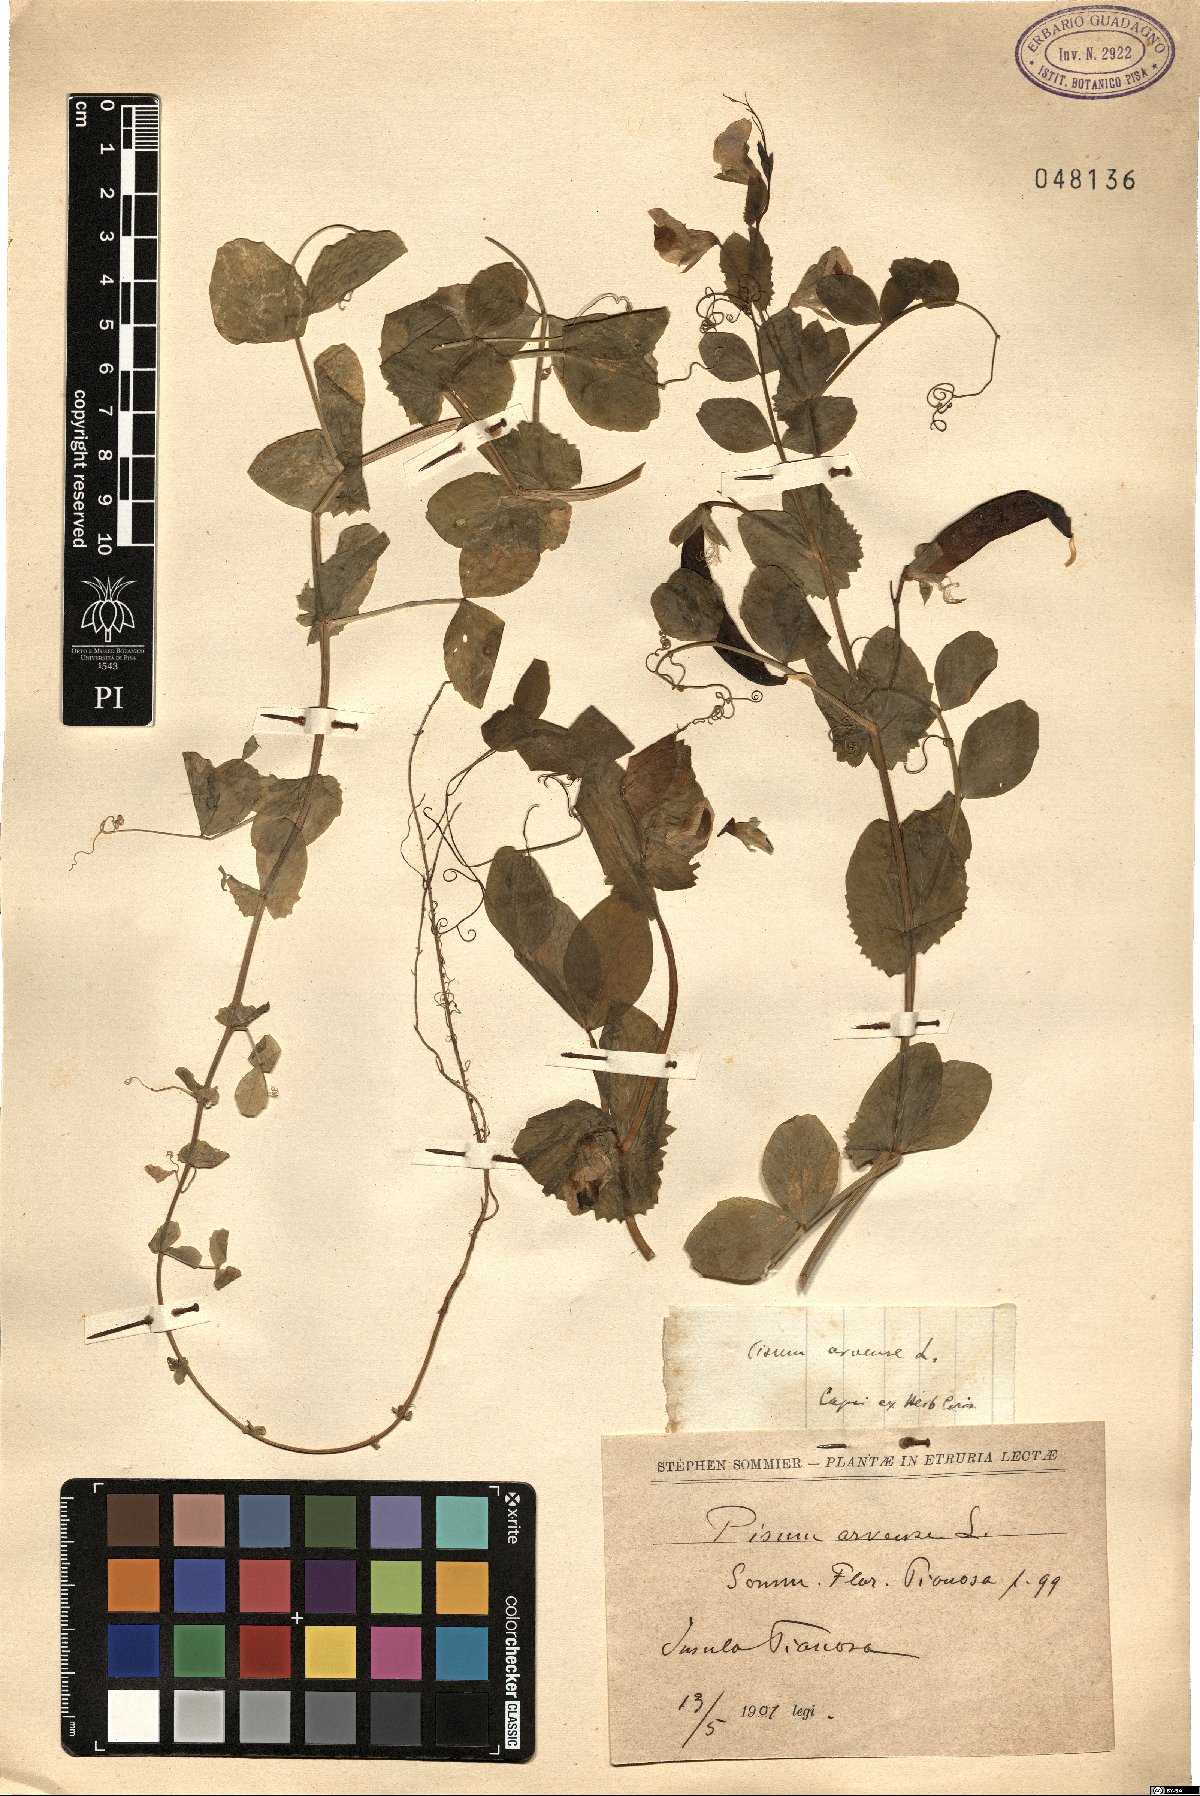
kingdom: Plantae
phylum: Tracheophyta
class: Magnoliopsida
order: Fabales
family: Fabaceae
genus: Lathyrus
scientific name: Lathyrus oleraceus
